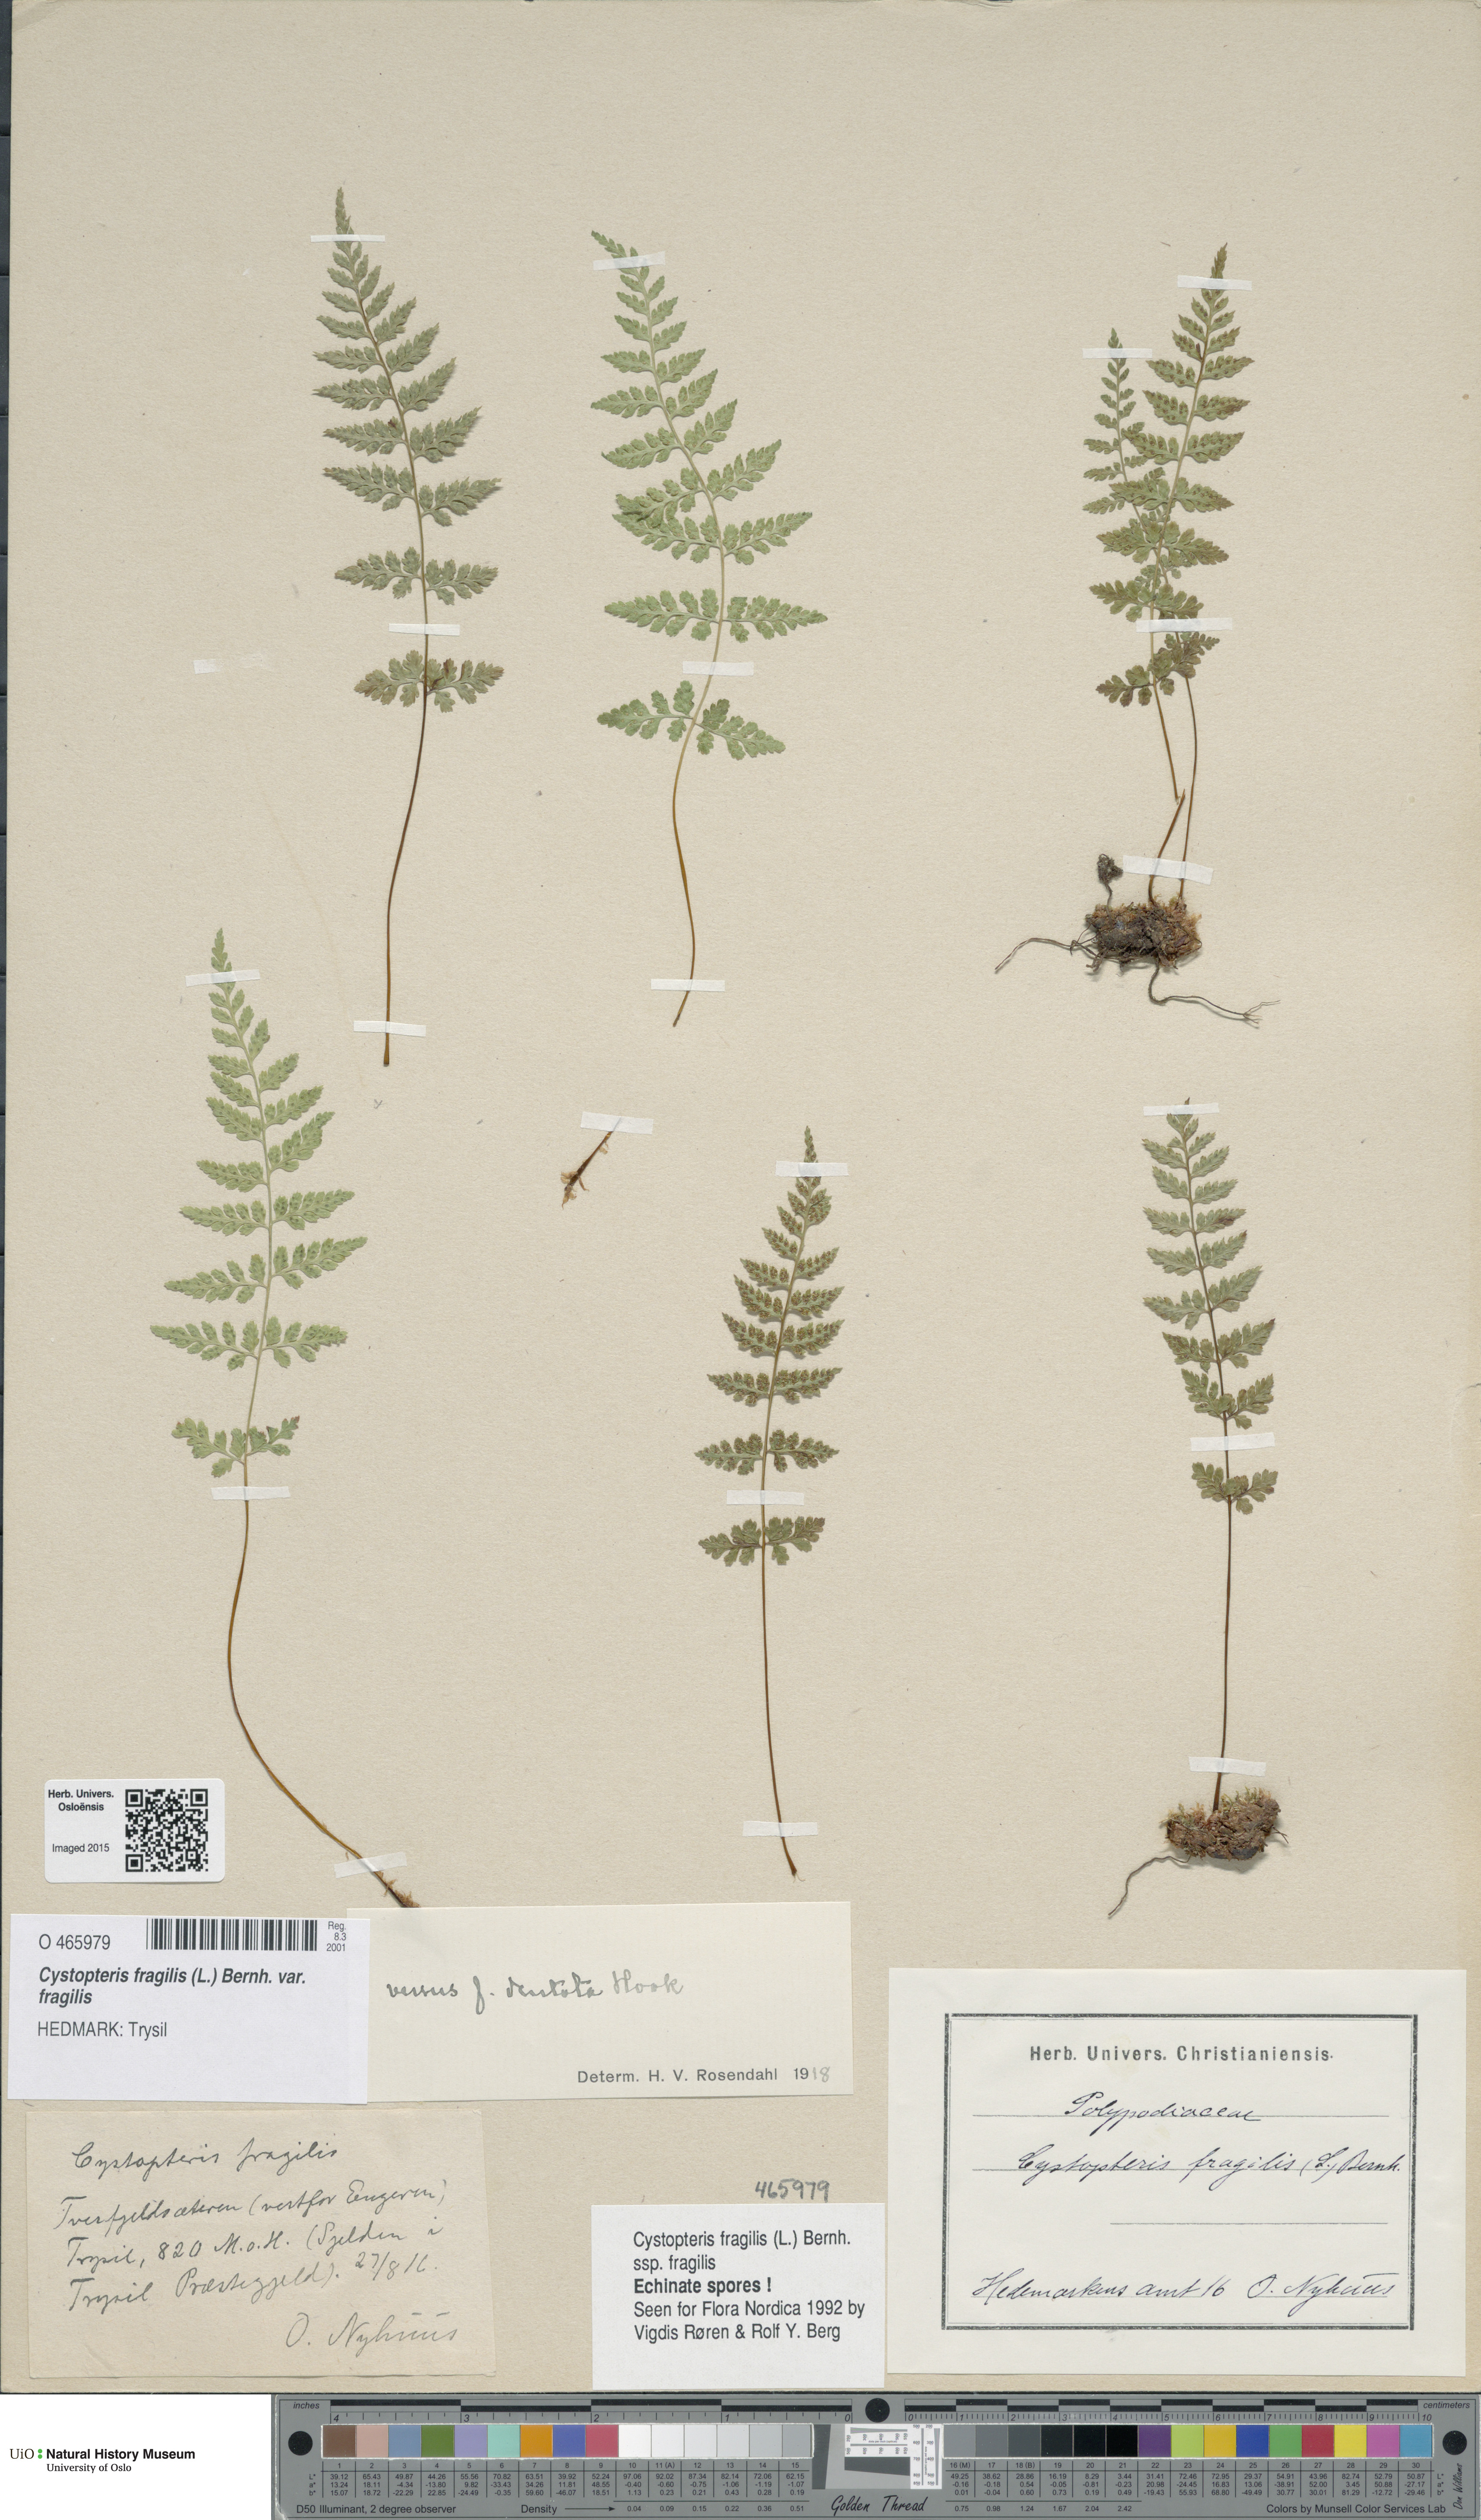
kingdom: Plantae
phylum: Tracheophyta
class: Polypodiopsida
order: Polypodiales
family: Cystopteridaceae
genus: Cystopteris
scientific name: Cystopteris fragilis
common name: Brittle bladder fern
